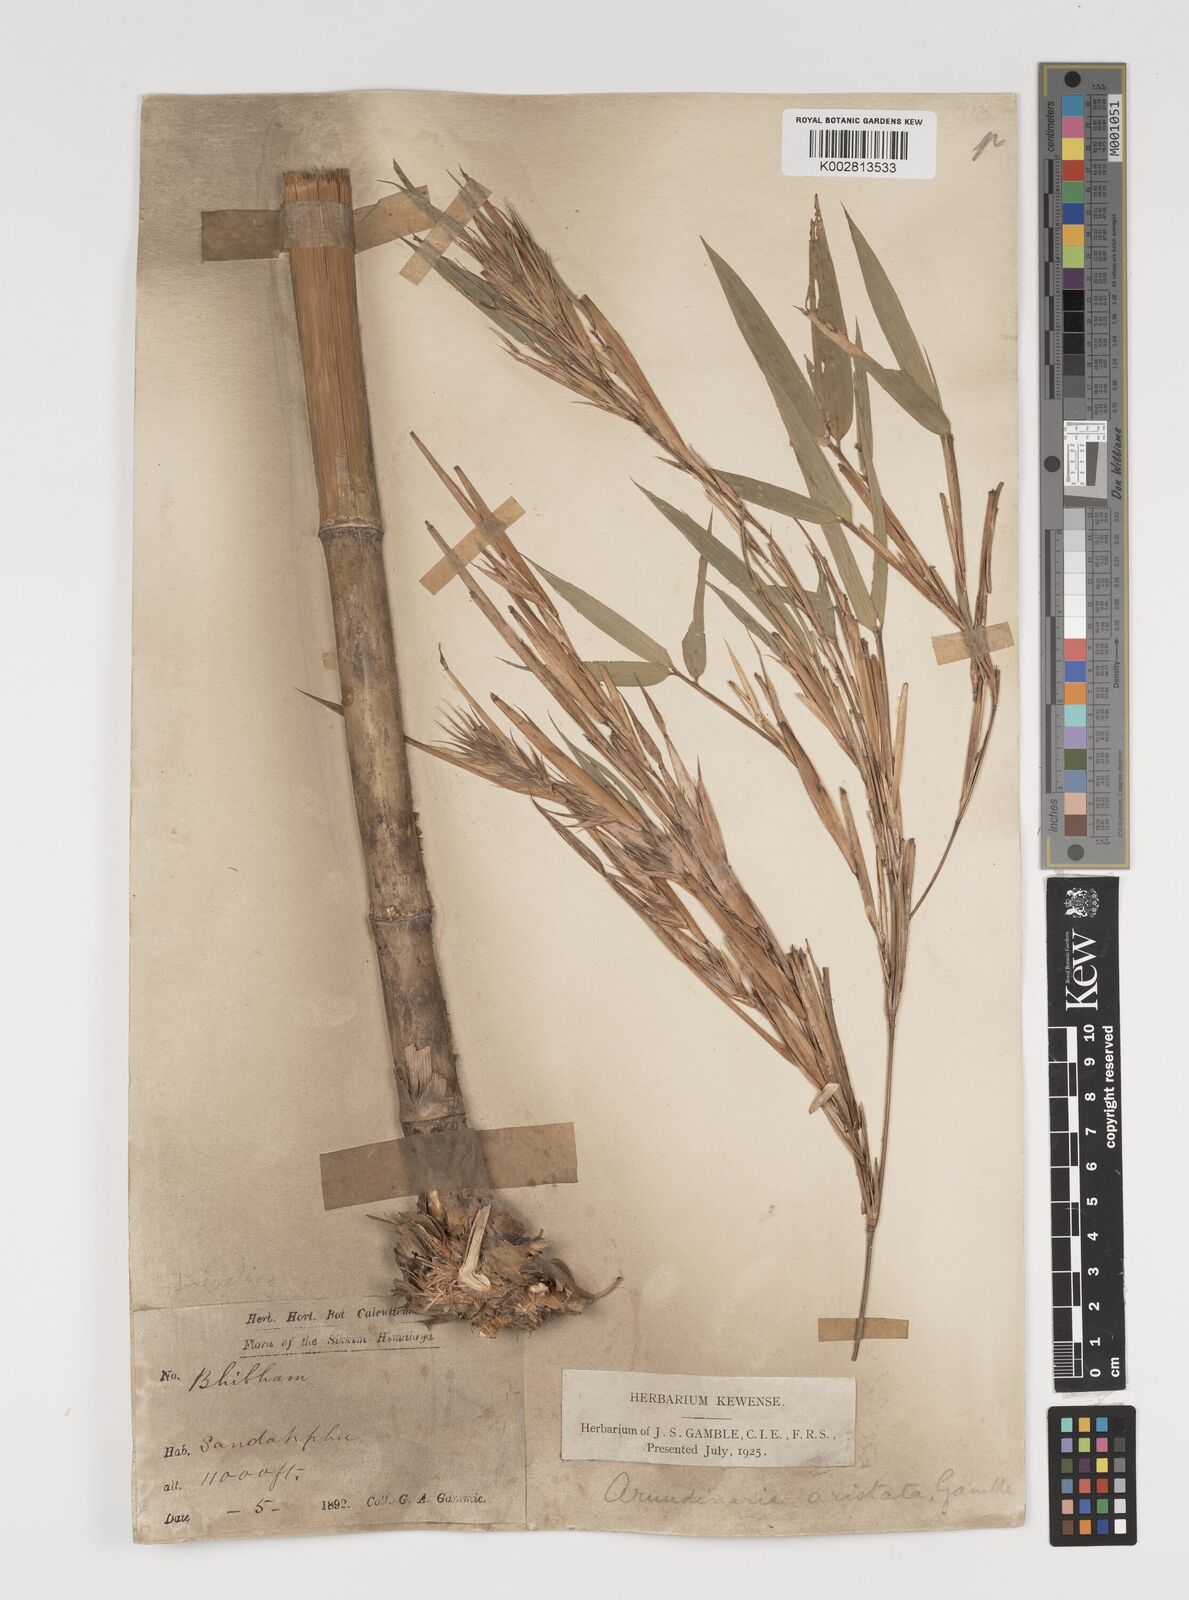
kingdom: Plantae
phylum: Tracheophyta
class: Liliopsida
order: Poales
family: Poaceae
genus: Thamnocalamus
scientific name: Thamnocalamus spathiflorus
